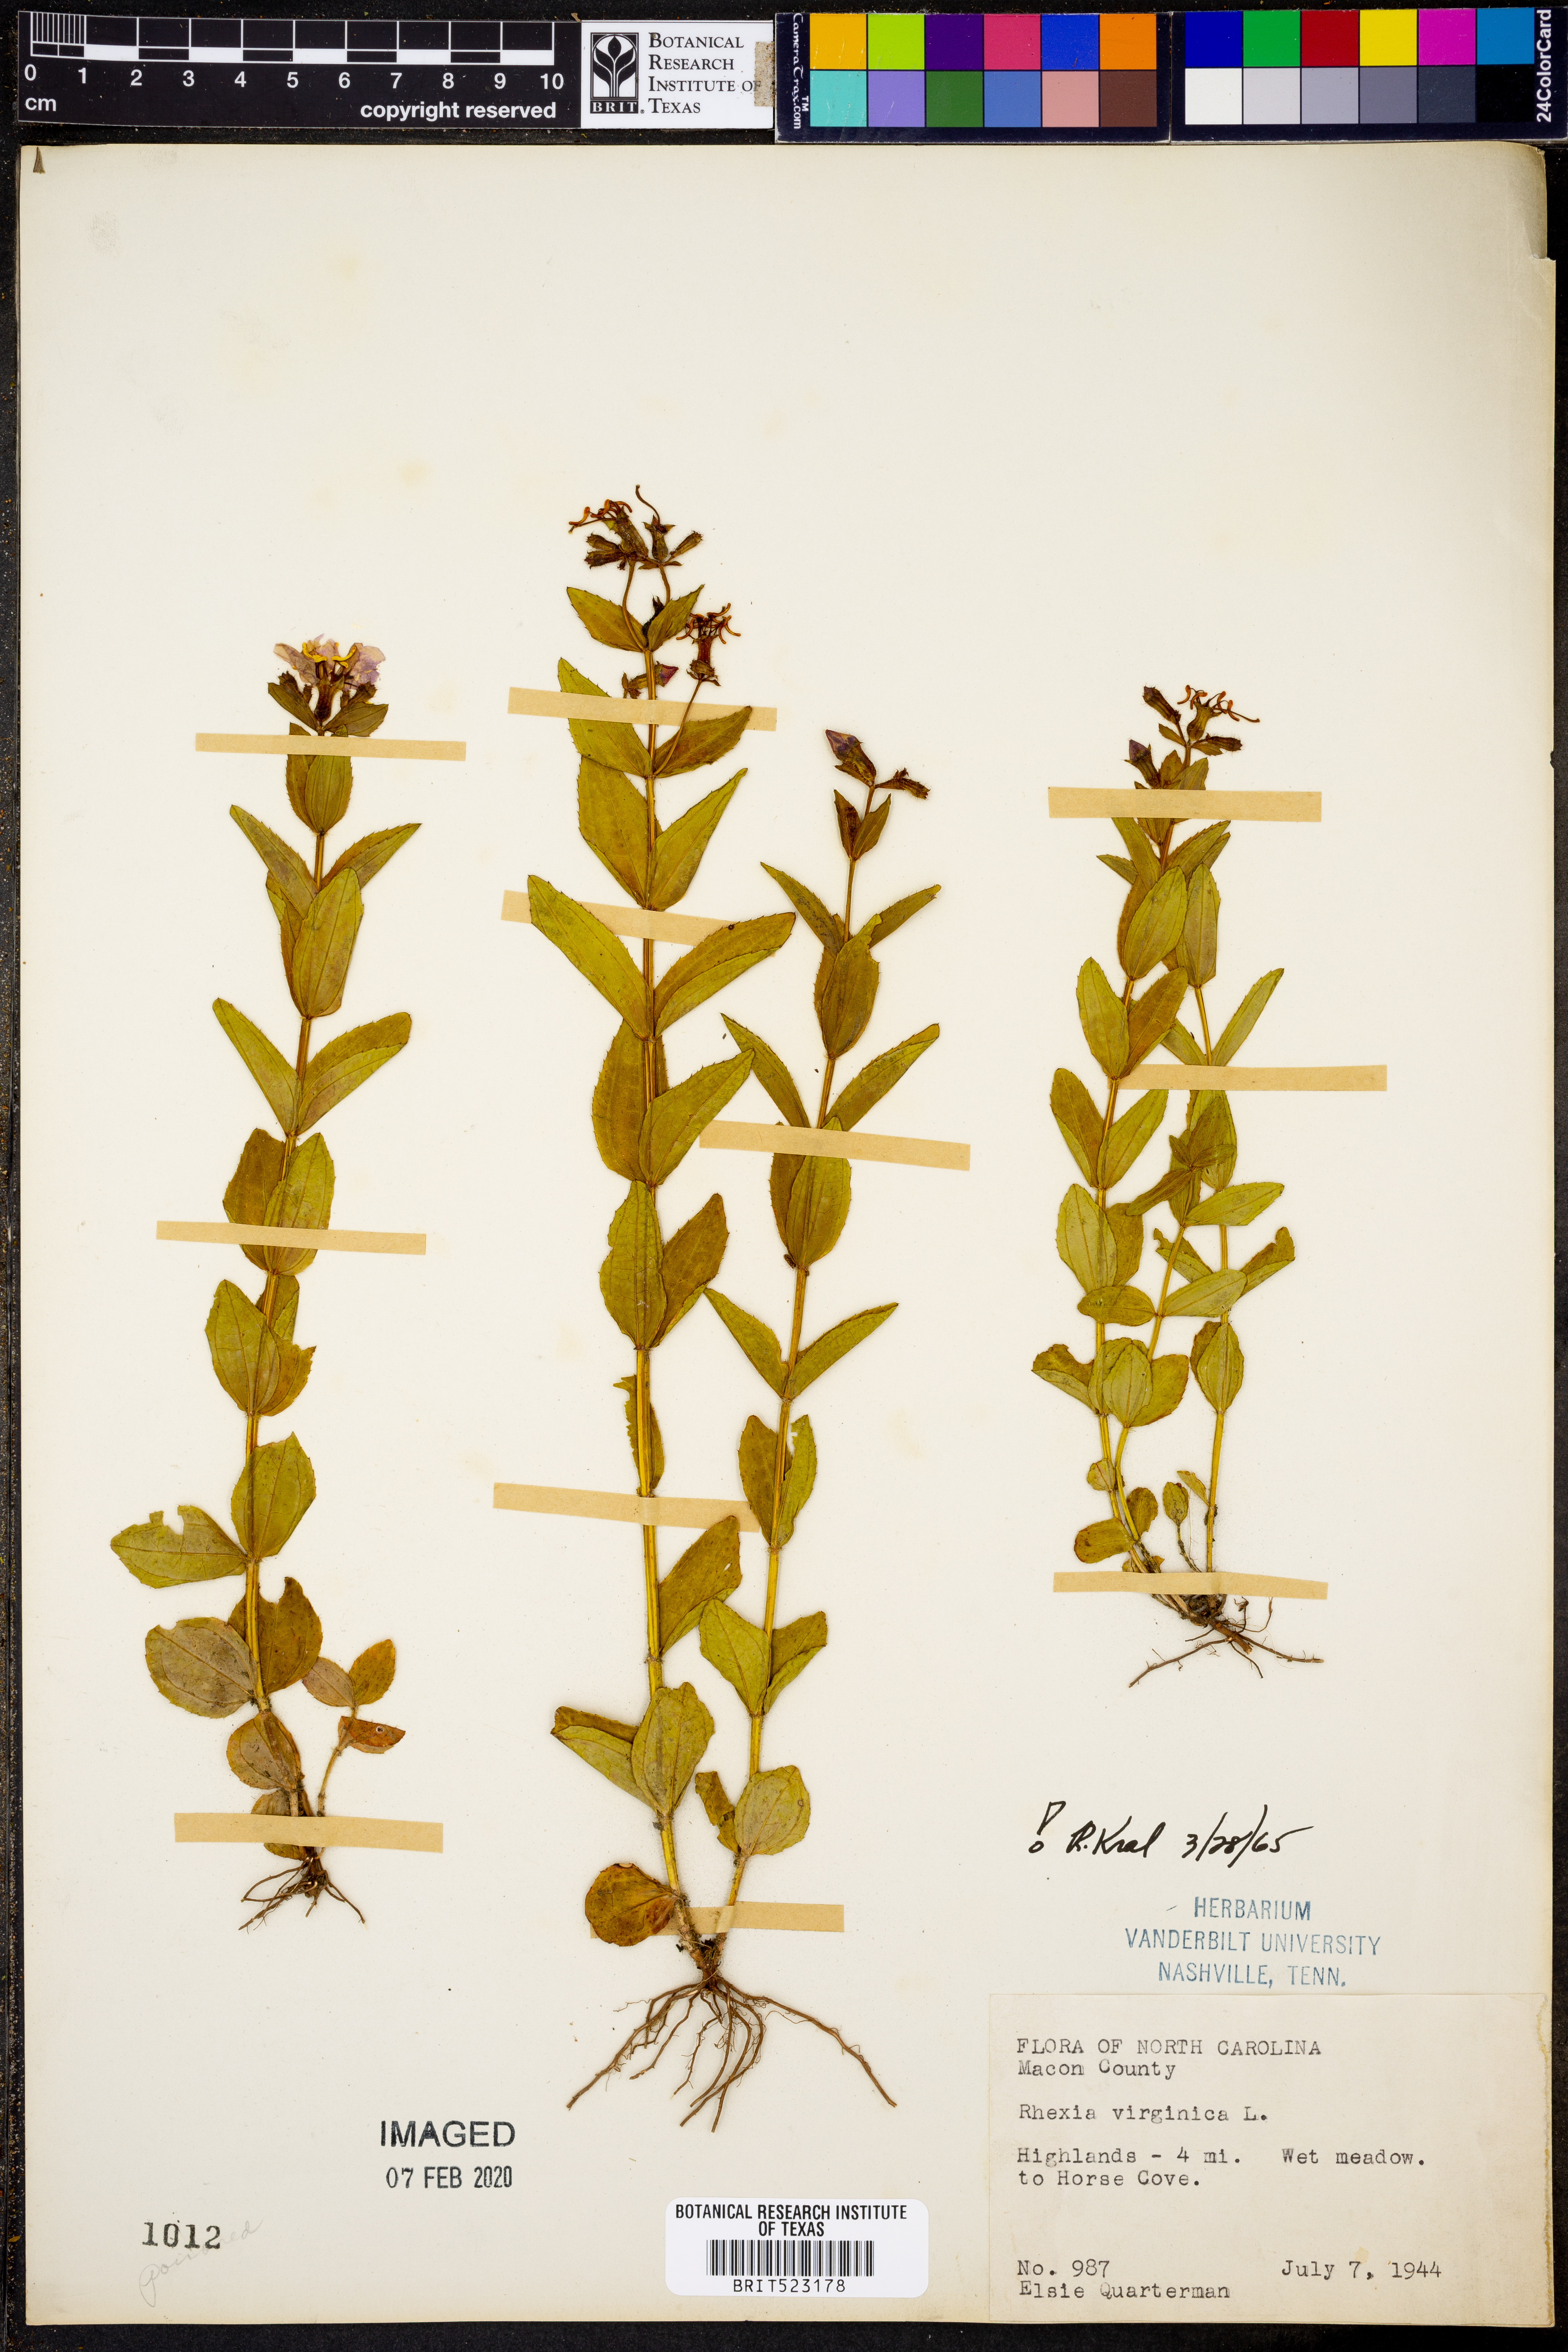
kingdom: Plantae
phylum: Tracheophyta
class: Magnoliopsida
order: Myrtales
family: Melastomataceae
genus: Rhexia
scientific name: Rhexia virginica
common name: Common meadow beauty
